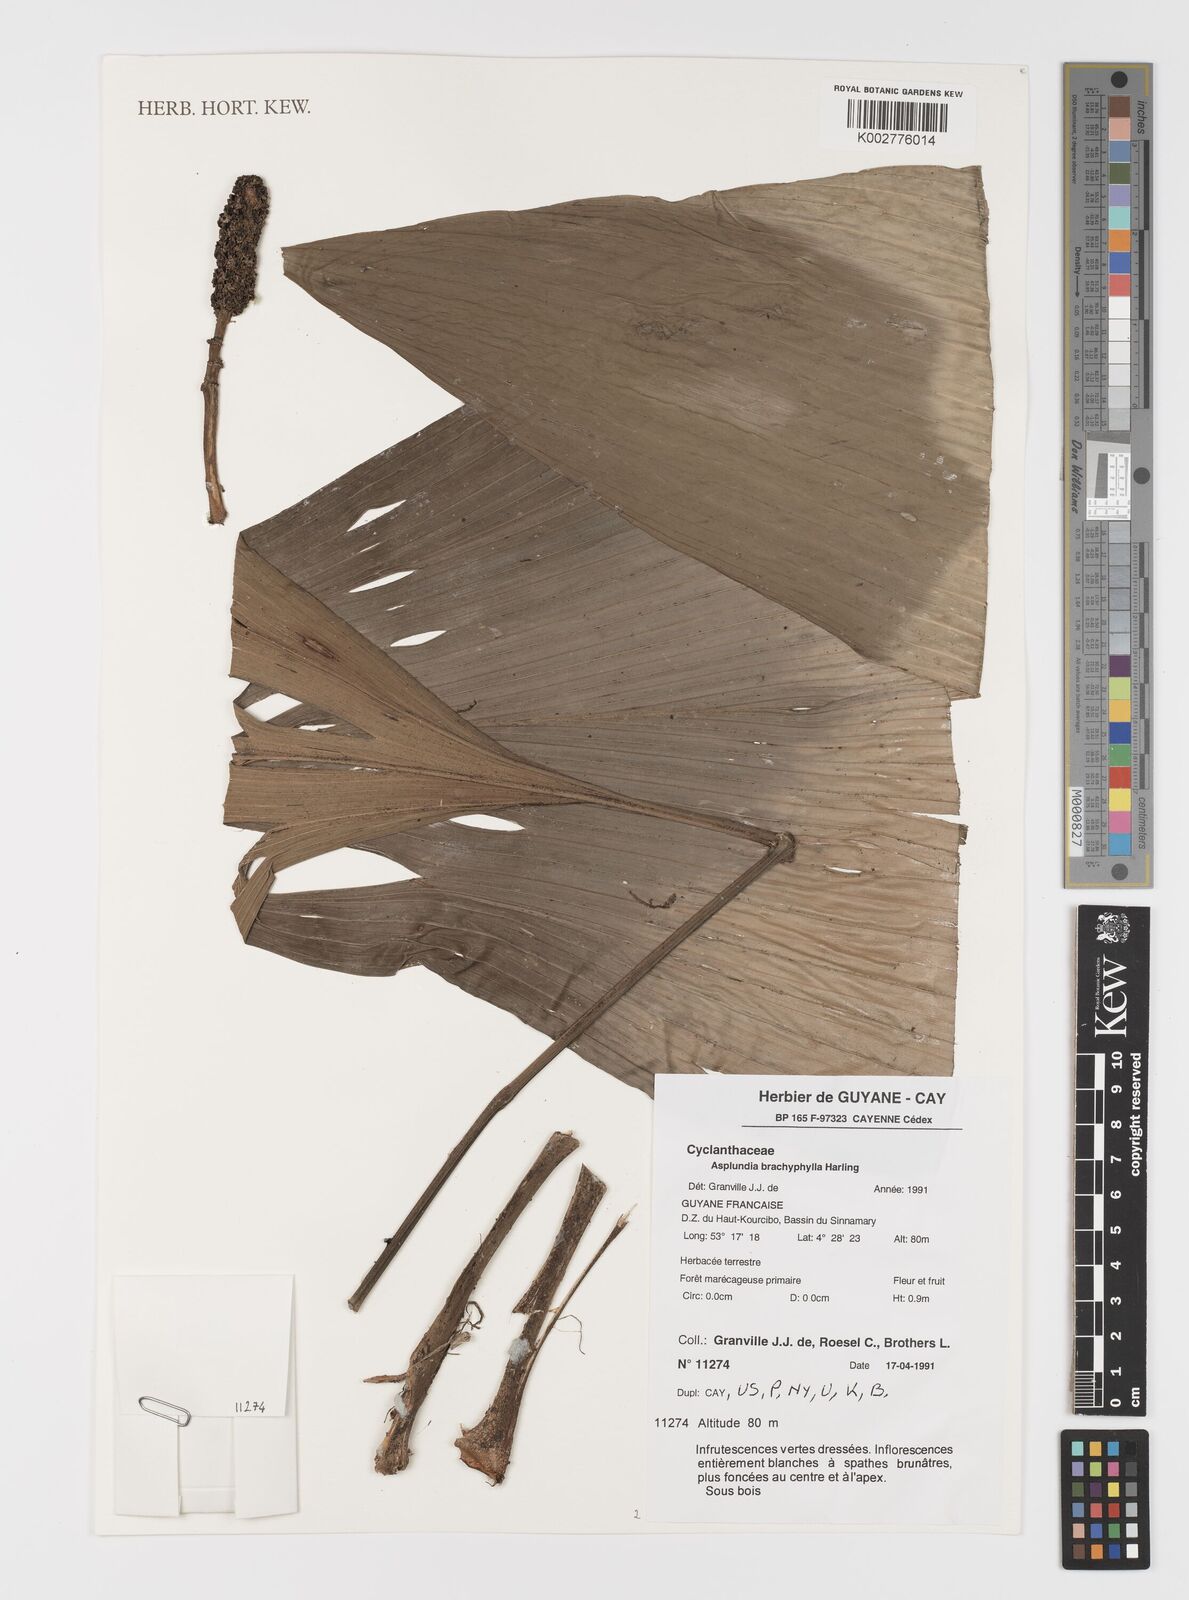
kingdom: Plantae
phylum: Tracheophyta
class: Liliopsida
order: Pandanales
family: Cyclanthaceae
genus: Asplundia
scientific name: Asplundia brachyphylla
